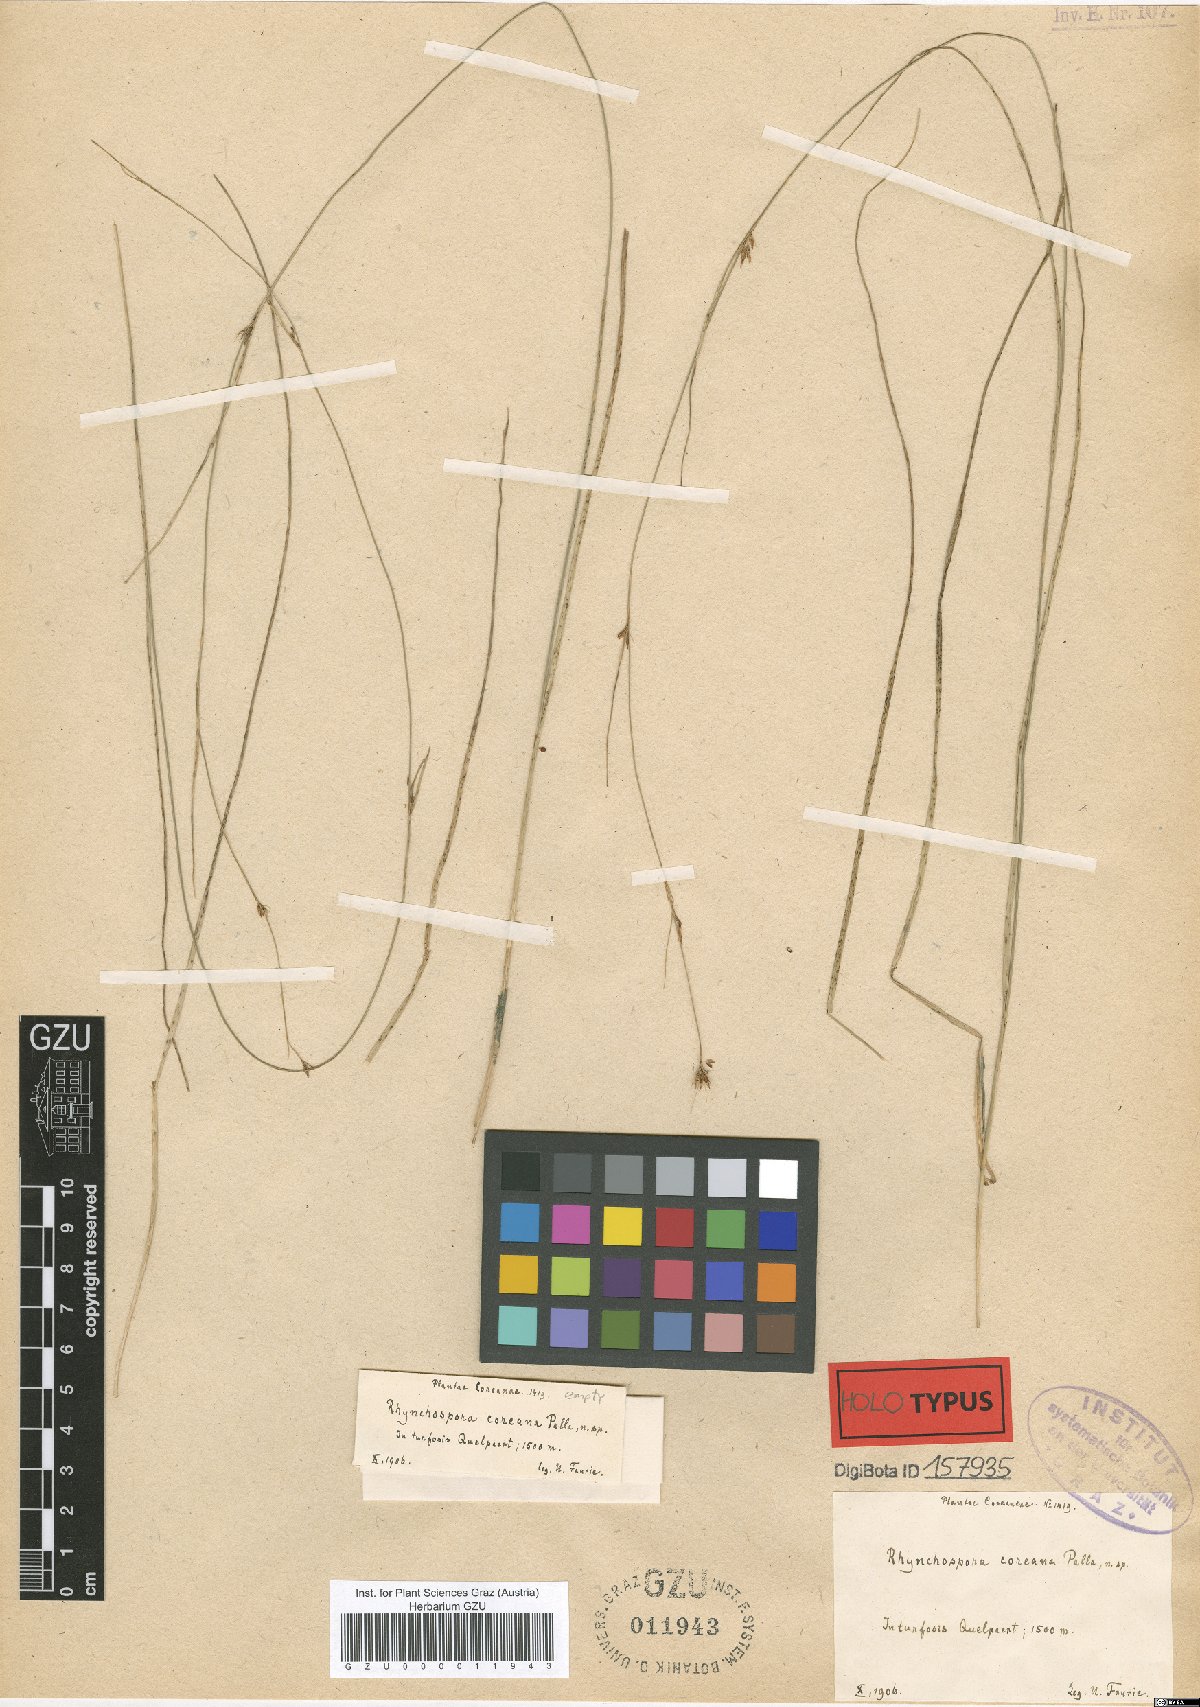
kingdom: Plantae
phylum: Tracheophyta
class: Liliopsida
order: Poales
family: Cyperaceae
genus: Rhynchospora
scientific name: Rhynchospora fujiiana
